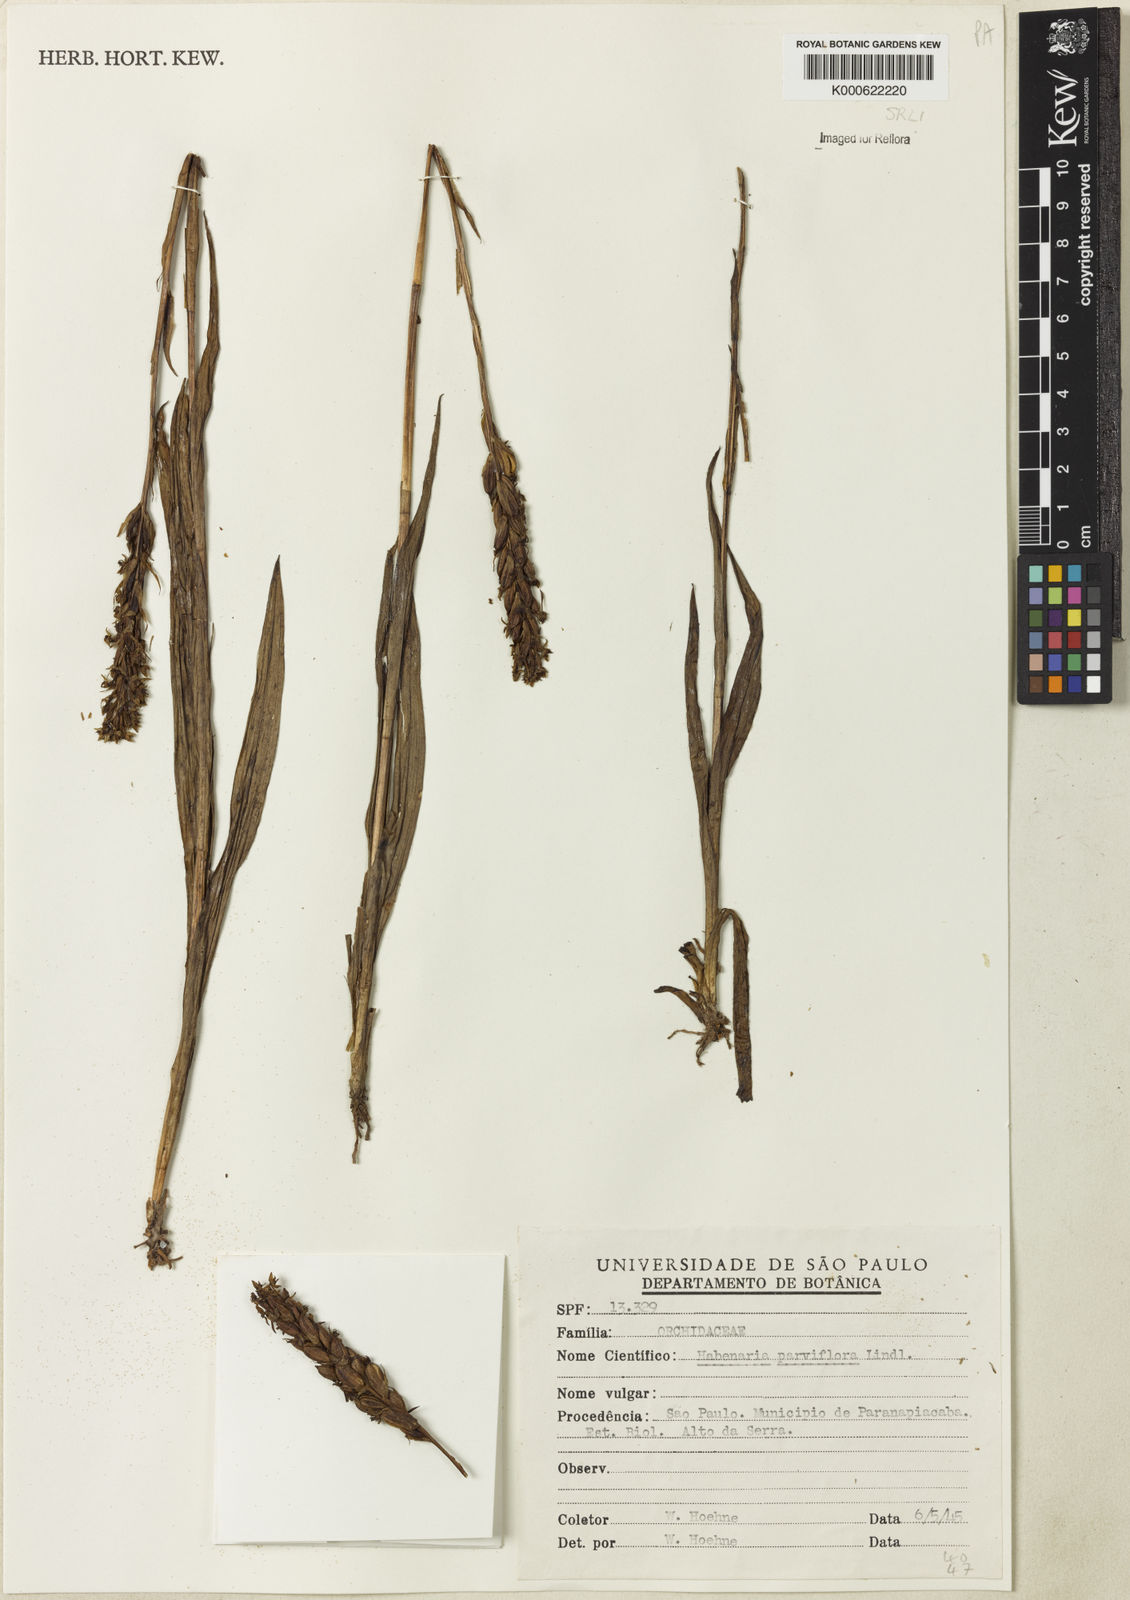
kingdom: Plantae
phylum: Tracheophyta
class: Liliopsida
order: Asparagales
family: Orchidaceae
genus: Habenaria
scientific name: Habenaria parviflora
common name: Small flowered habenaria
